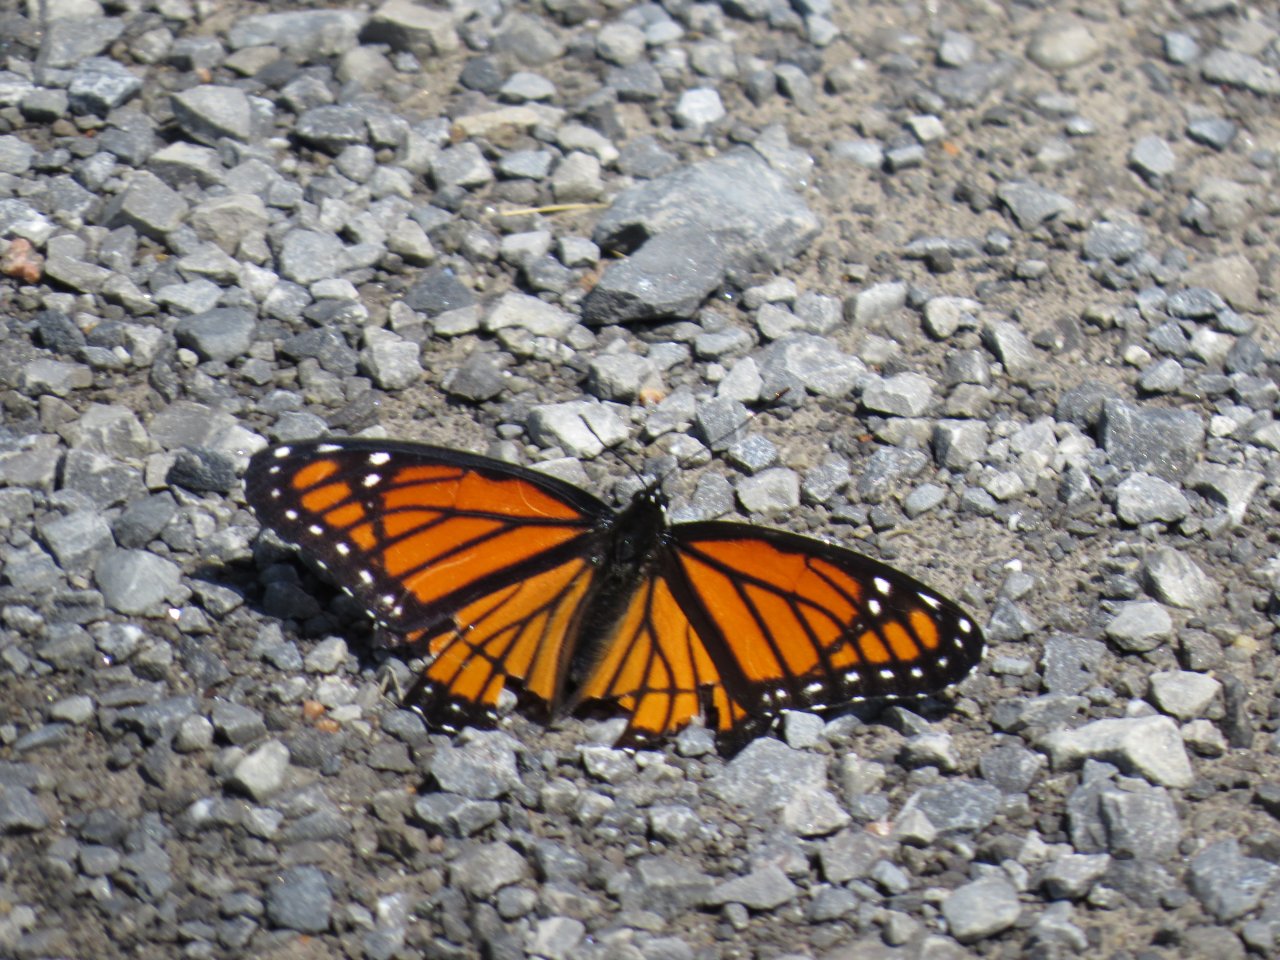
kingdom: Animalia
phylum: Arthropoda
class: Insecta
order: Lepidoptera
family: Nymphalidae
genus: Limenitis
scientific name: Limenitis archippus
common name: Viceroy
